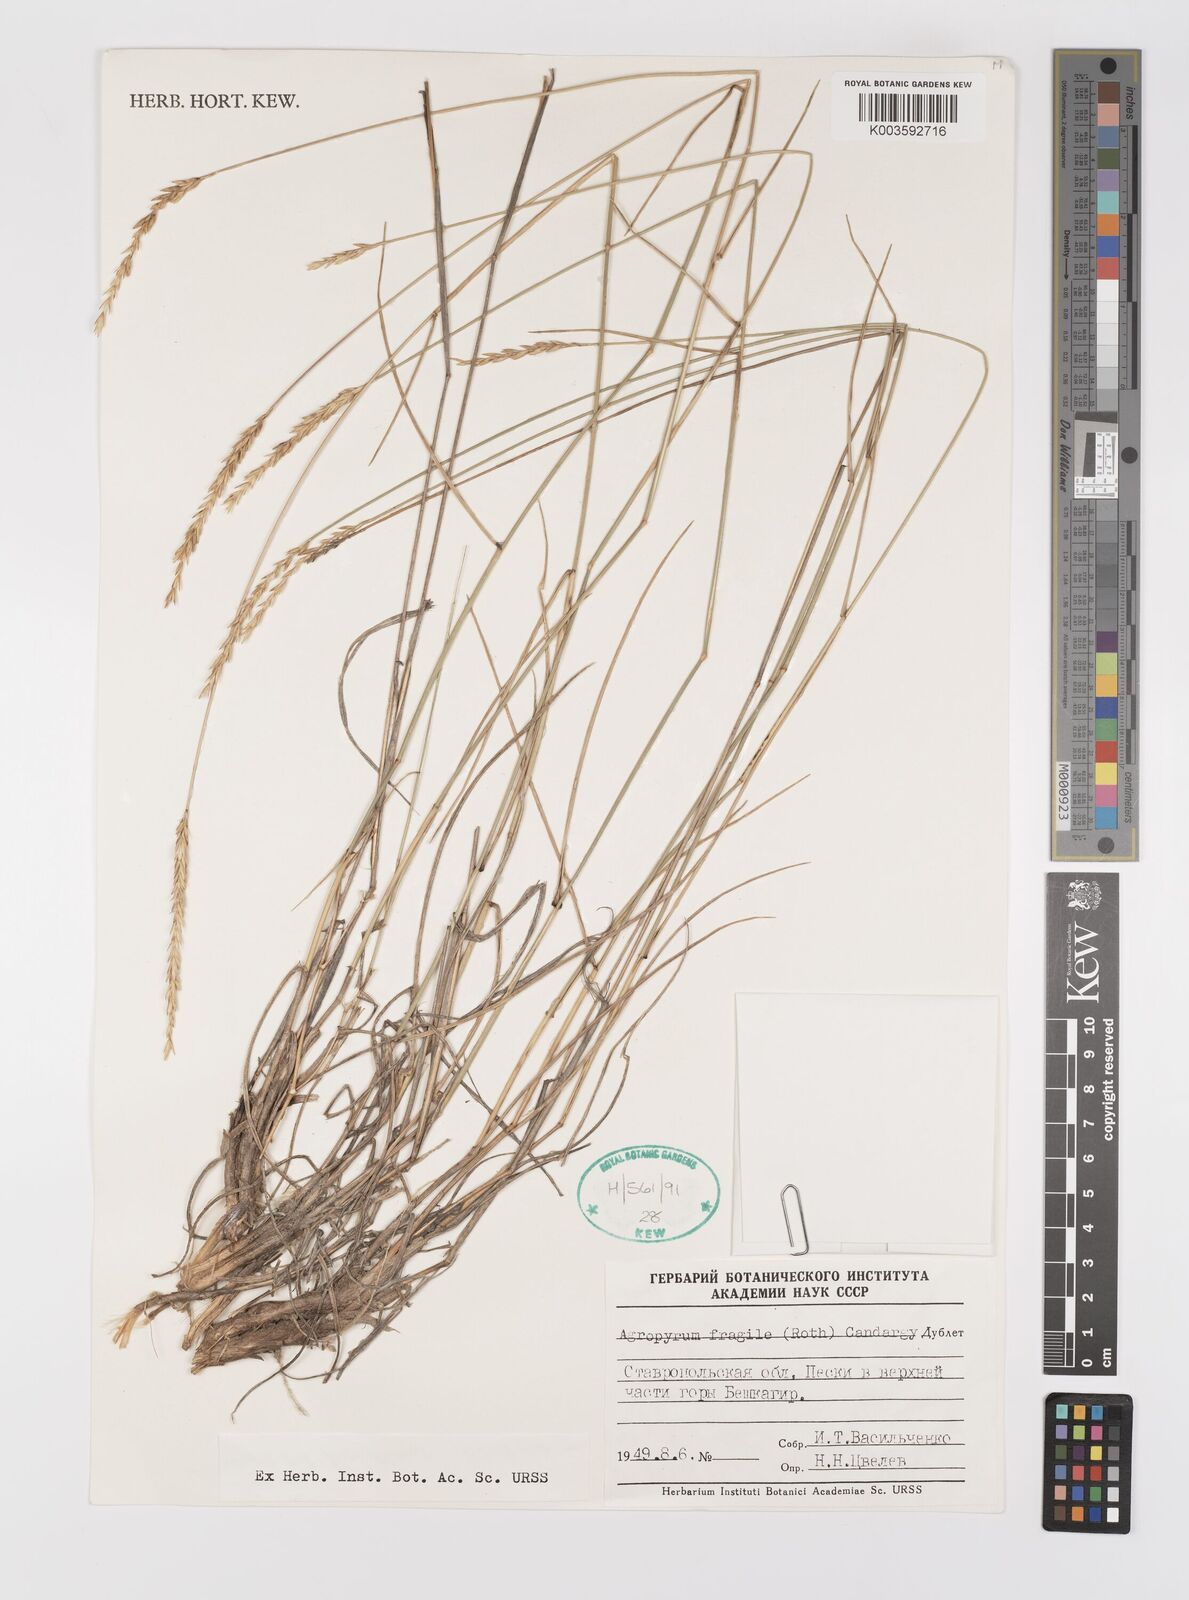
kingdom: Plantae
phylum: Tracheophyta
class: Liliopsida
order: Poales
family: Poaceae
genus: Agropyron
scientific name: Agropyron fragile
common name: Siberian wheatgrass
